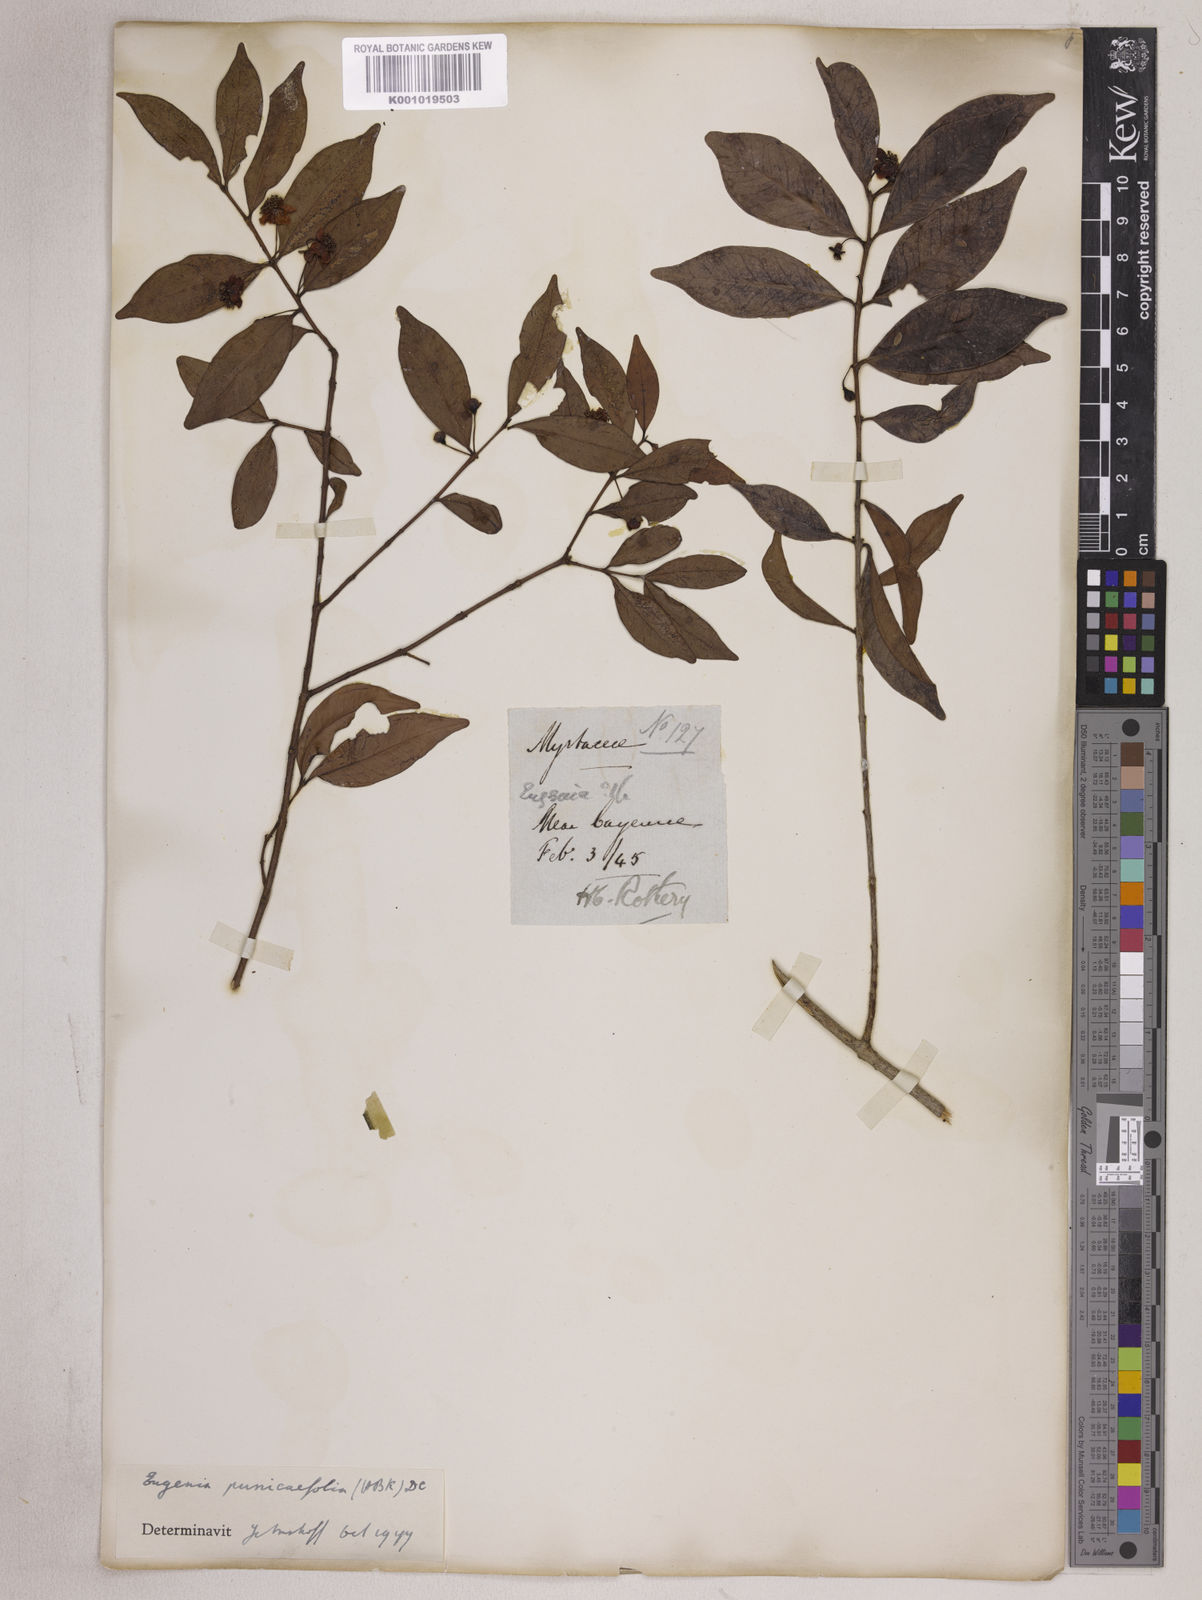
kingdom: Plantae
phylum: Tracheophyta
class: Magnoliopsida
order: Myrtales
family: Myrtaceae
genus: Eugenia
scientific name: Eugenia punicifolia
